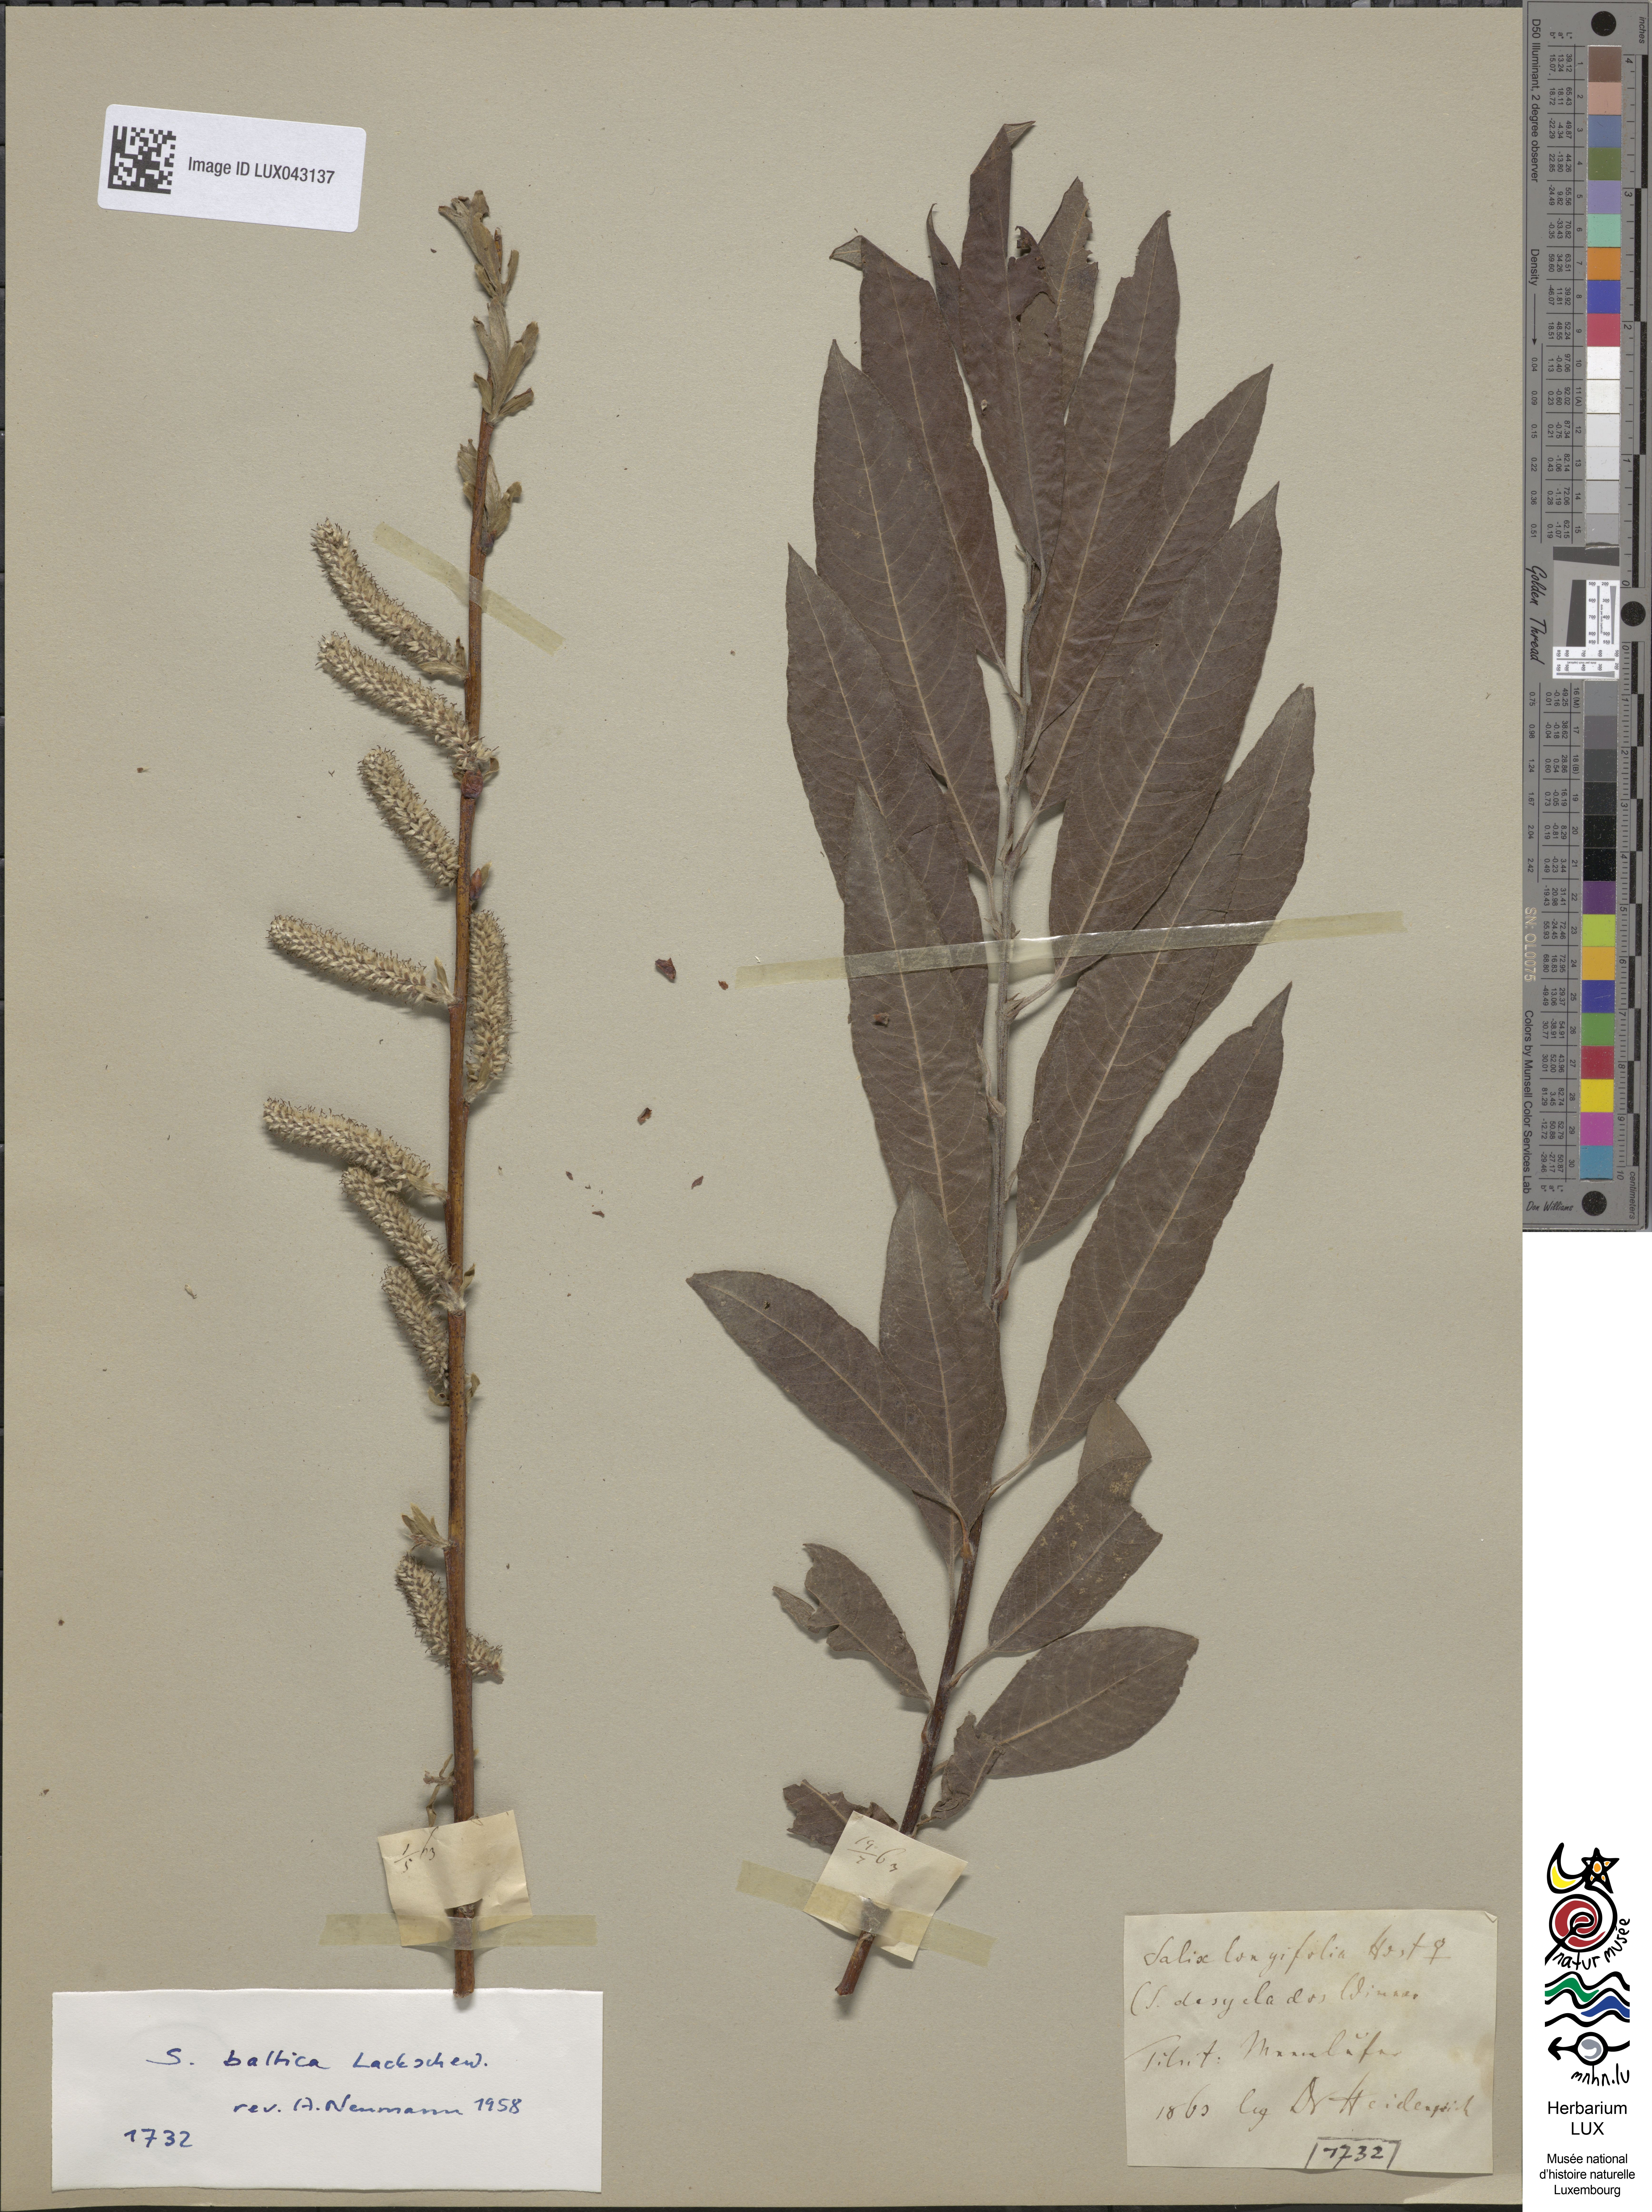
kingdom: Plantae
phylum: Tracheophyta
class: Magnoliopsida
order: Malpighiales
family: Salicaceae
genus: Salix
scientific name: Salix
